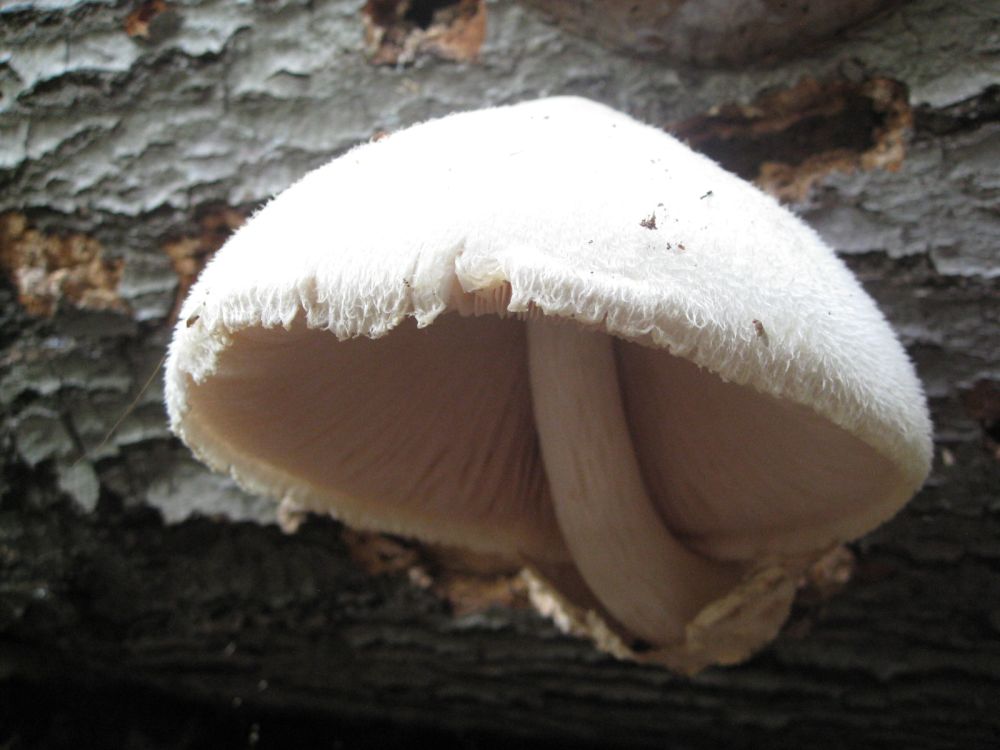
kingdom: Fungi
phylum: Basidiomycota
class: Agaricomycetes
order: Agaricales
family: Pluteaceae
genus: Volvariella
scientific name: Volvariella bombycina
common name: Silky rosegill
